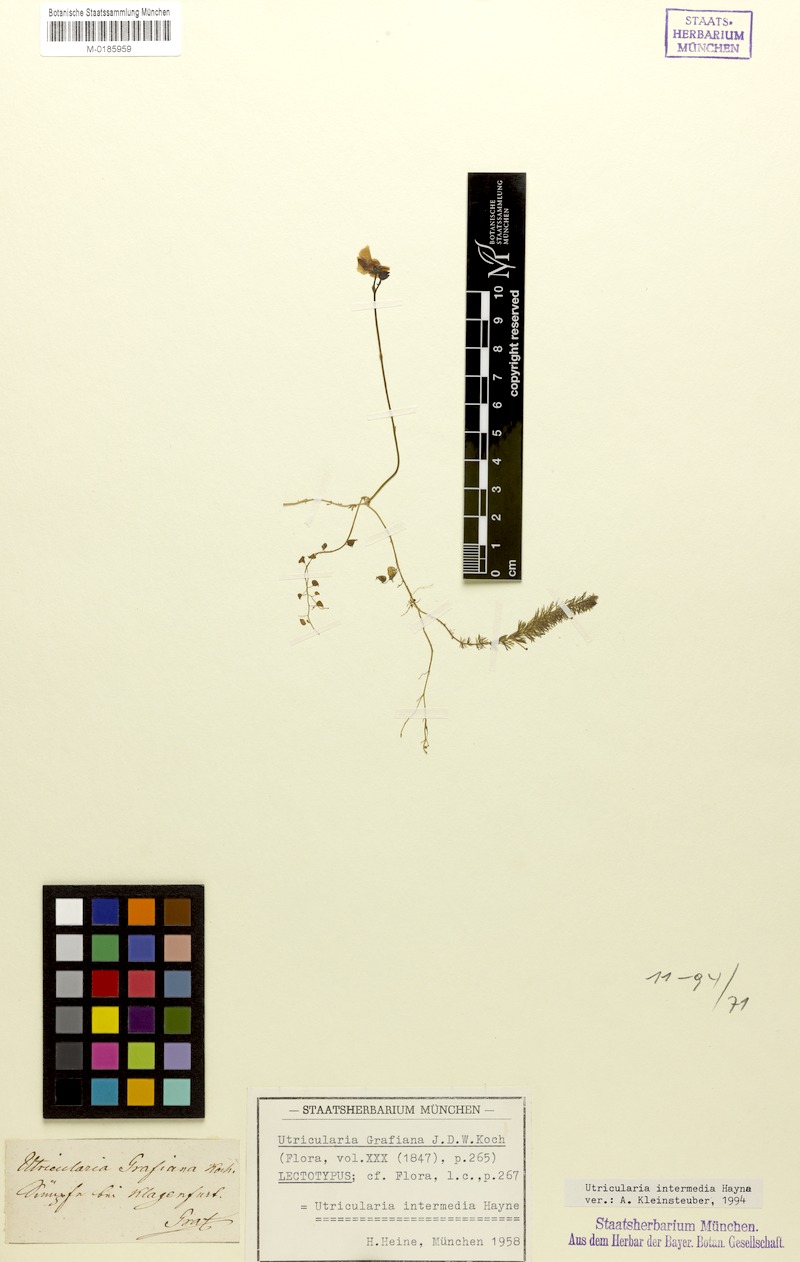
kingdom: Plantae
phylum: Tracheophyta
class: Magnoliopsida
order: Lamiales
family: Lentibulariaceae
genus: Utricularia
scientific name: Utricularia intermedia
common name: Intermediate bladderwort
